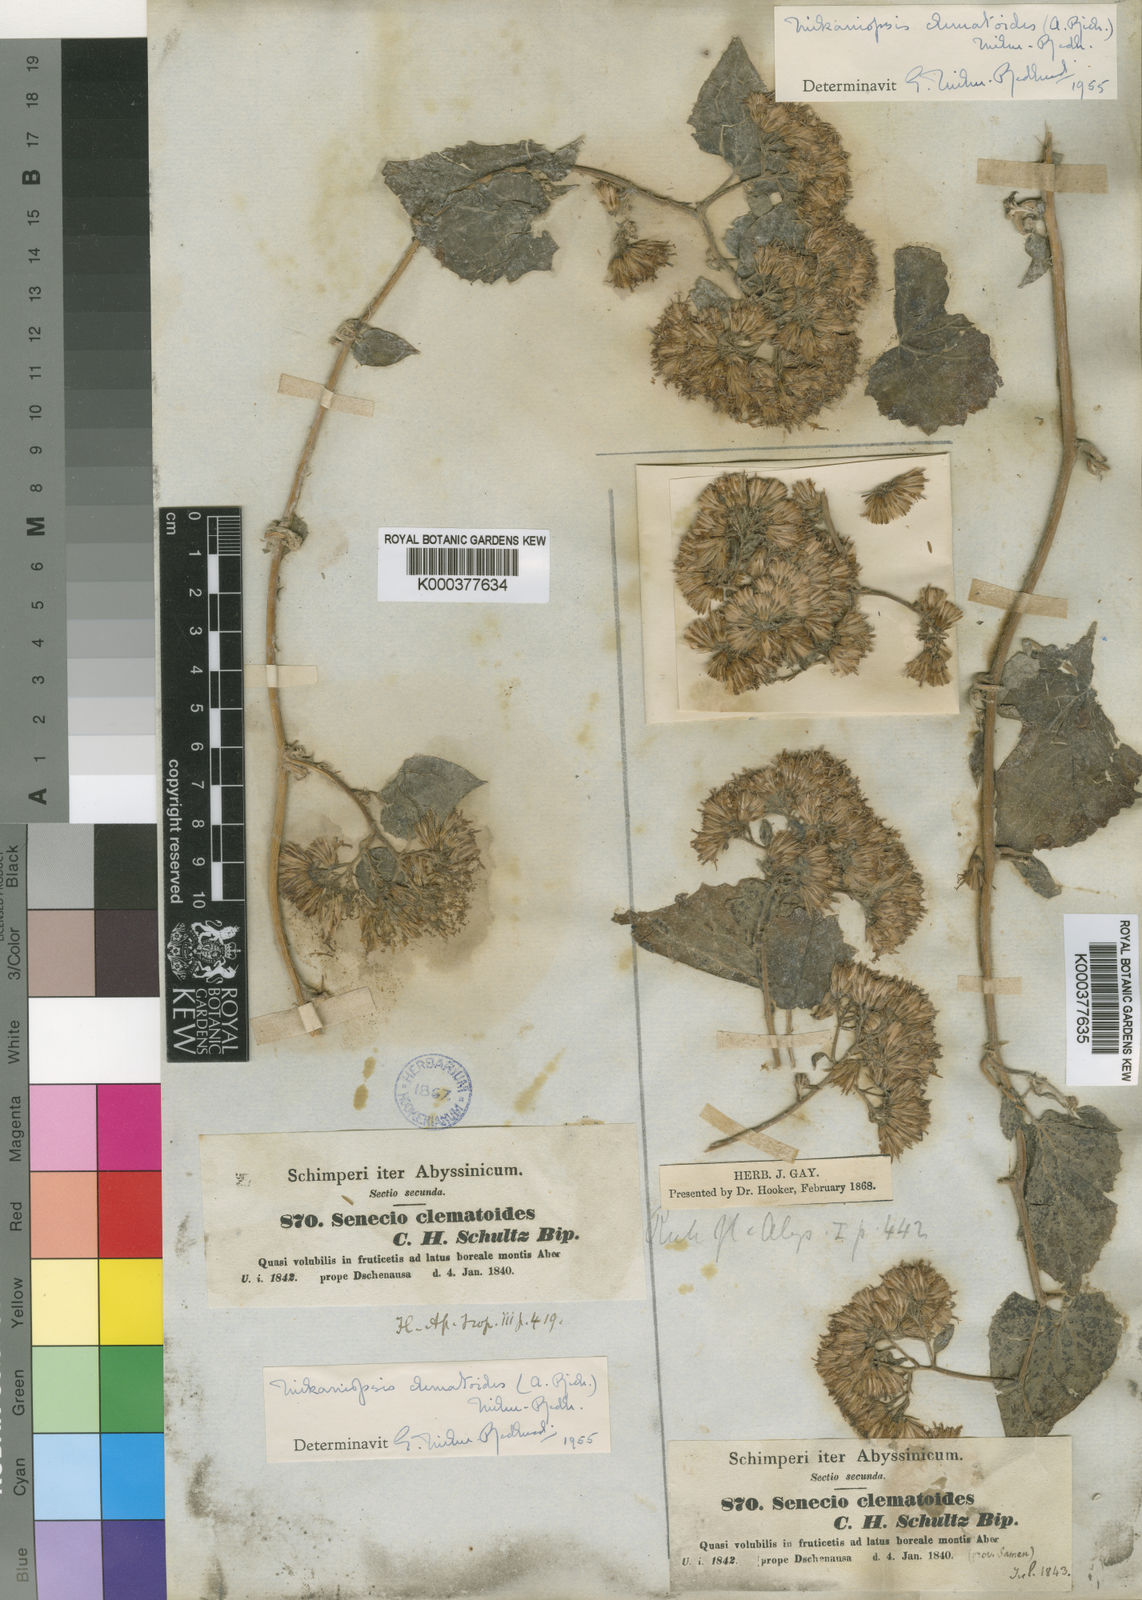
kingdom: Plantae
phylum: Tracheophyta
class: Magnoliopsida
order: Asterales
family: Asteraceae
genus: Mikaniopsis
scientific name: Mikaniopsis clematoides
